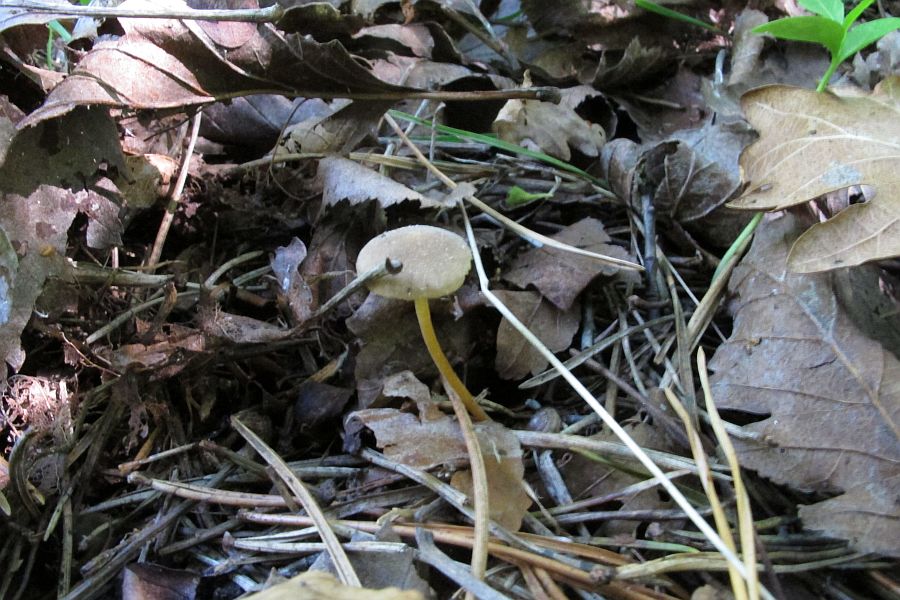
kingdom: Fungi
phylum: Basidiomycota
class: Agaricomycetes
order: Agaricales
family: Physalacriaceae
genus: Strobilurus
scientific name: Strobilurus stephanocystis
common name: fyrre-koglehat
